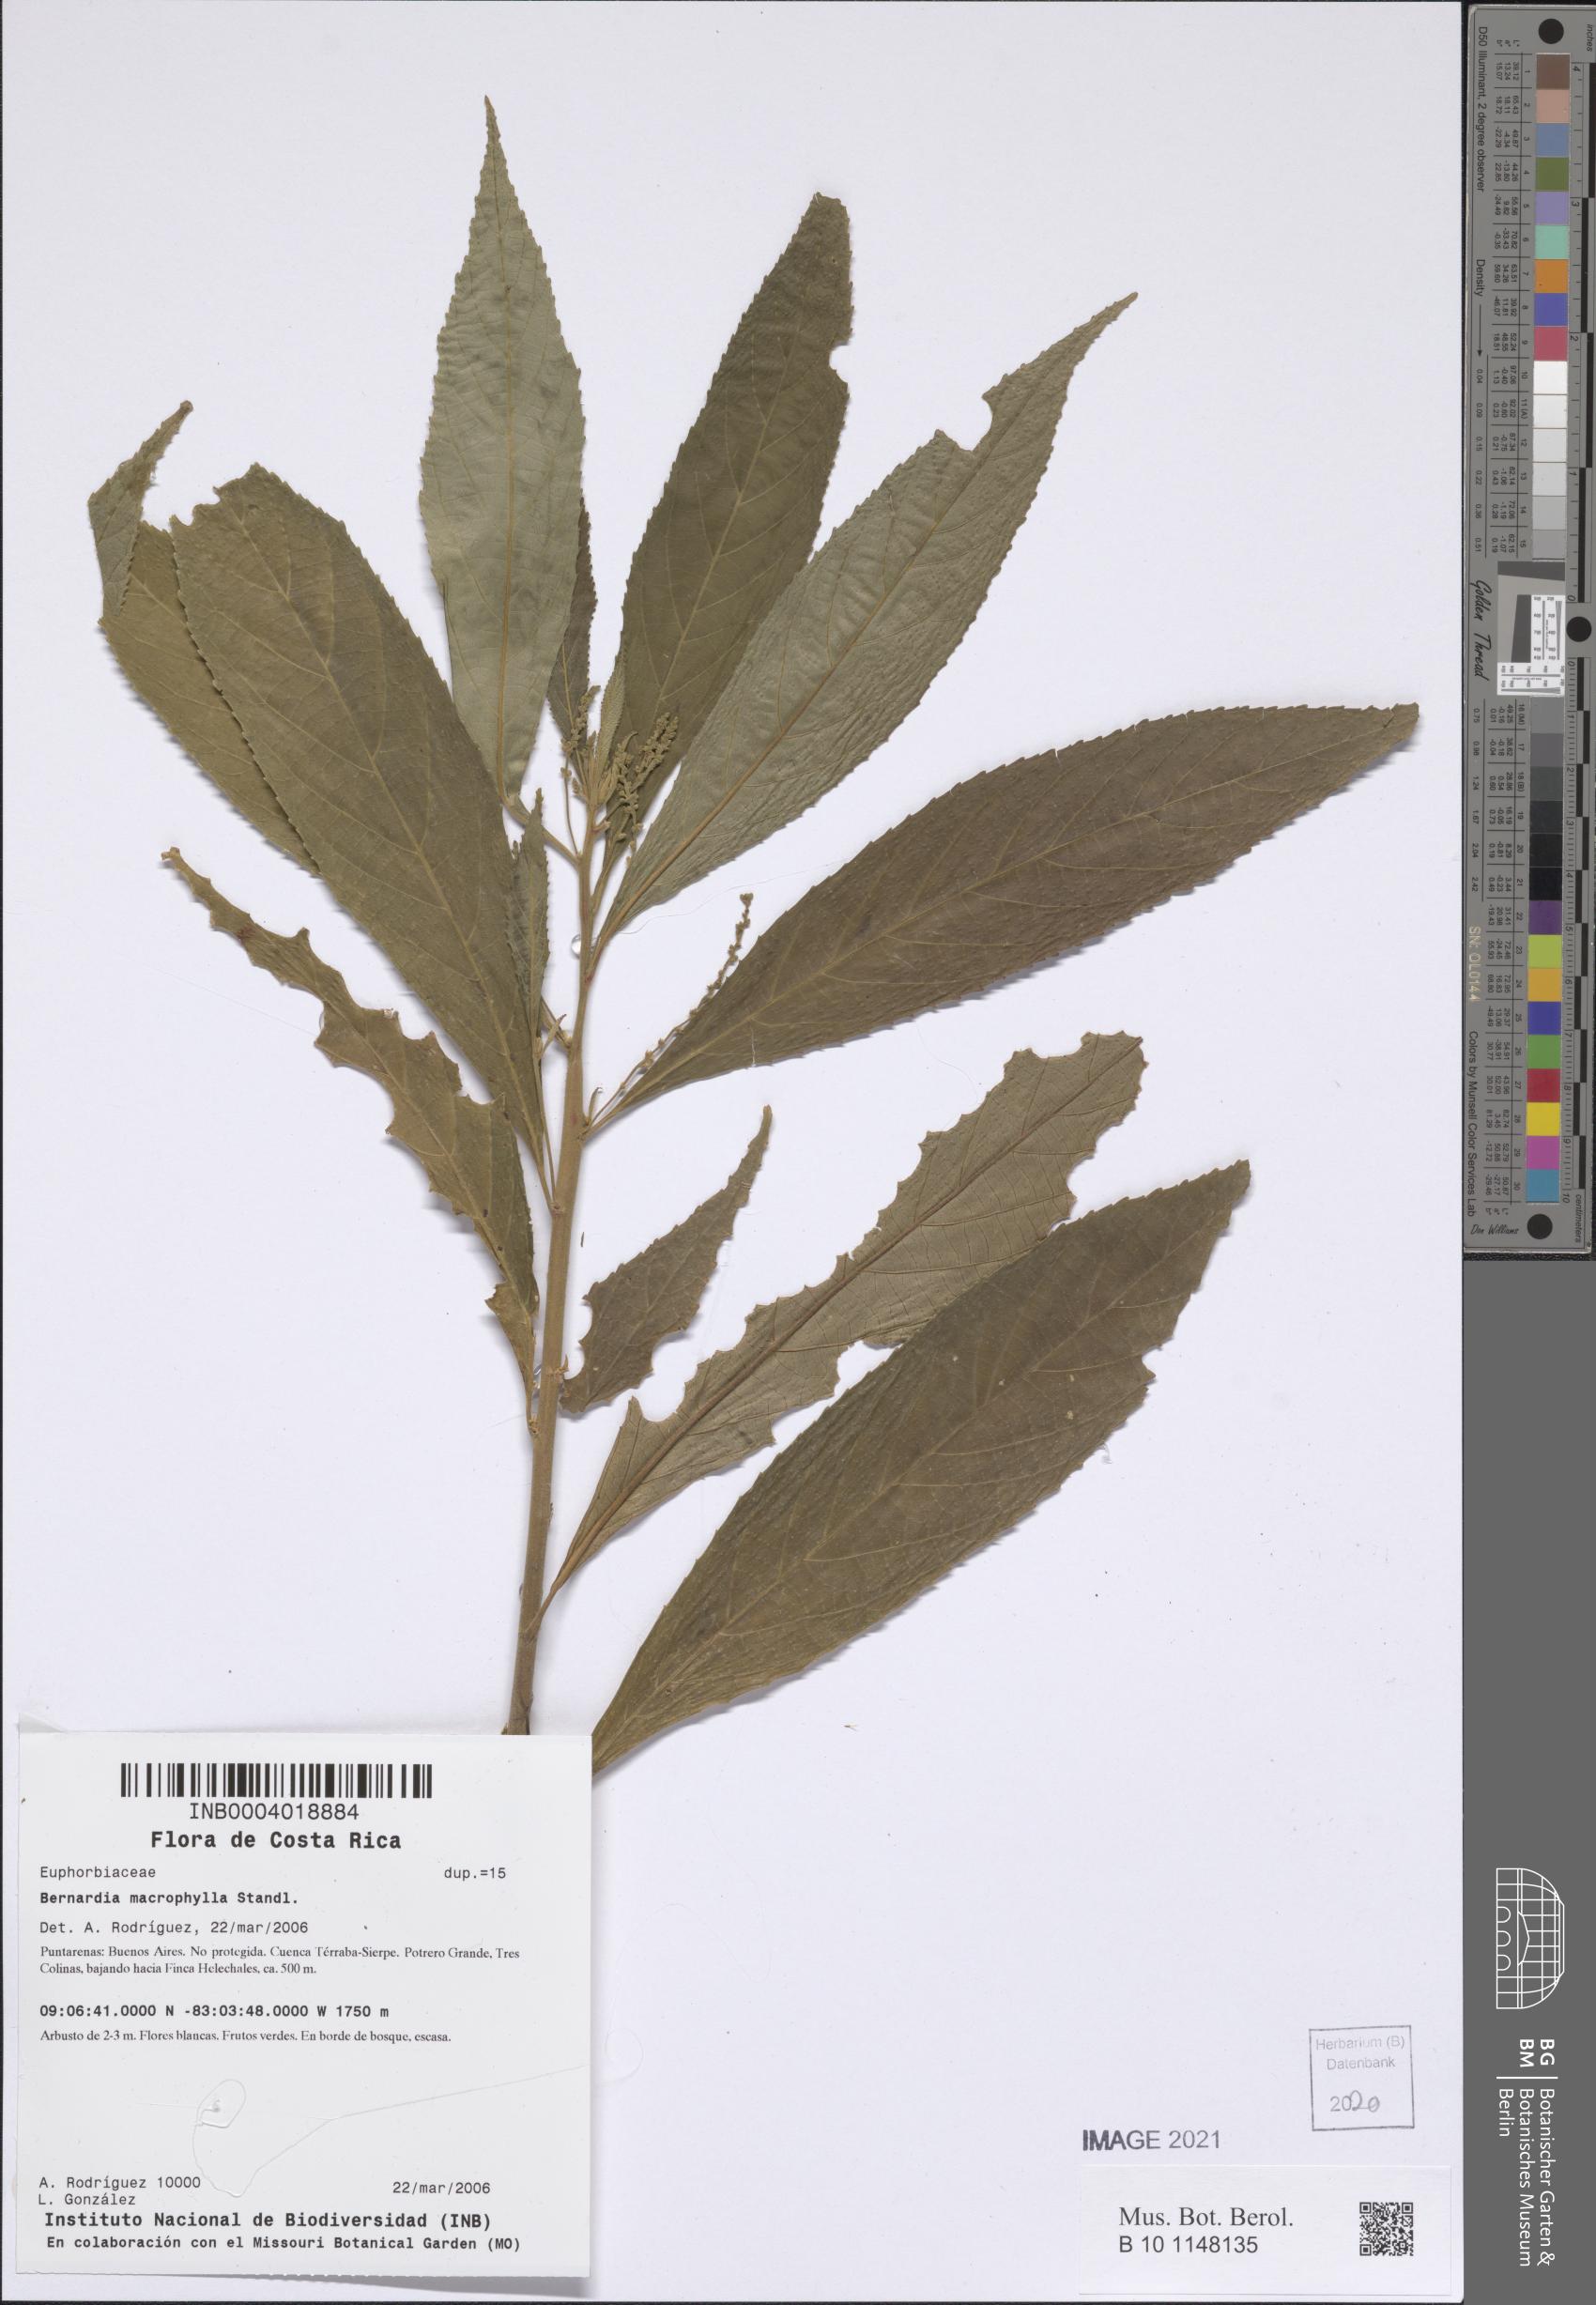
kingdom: Plantae
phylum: Tracheophyta
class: Magnoliopsida
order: Malpighiales
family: Euphorbiaceae
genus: Bernardia
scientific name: Bernardia macrophylla
